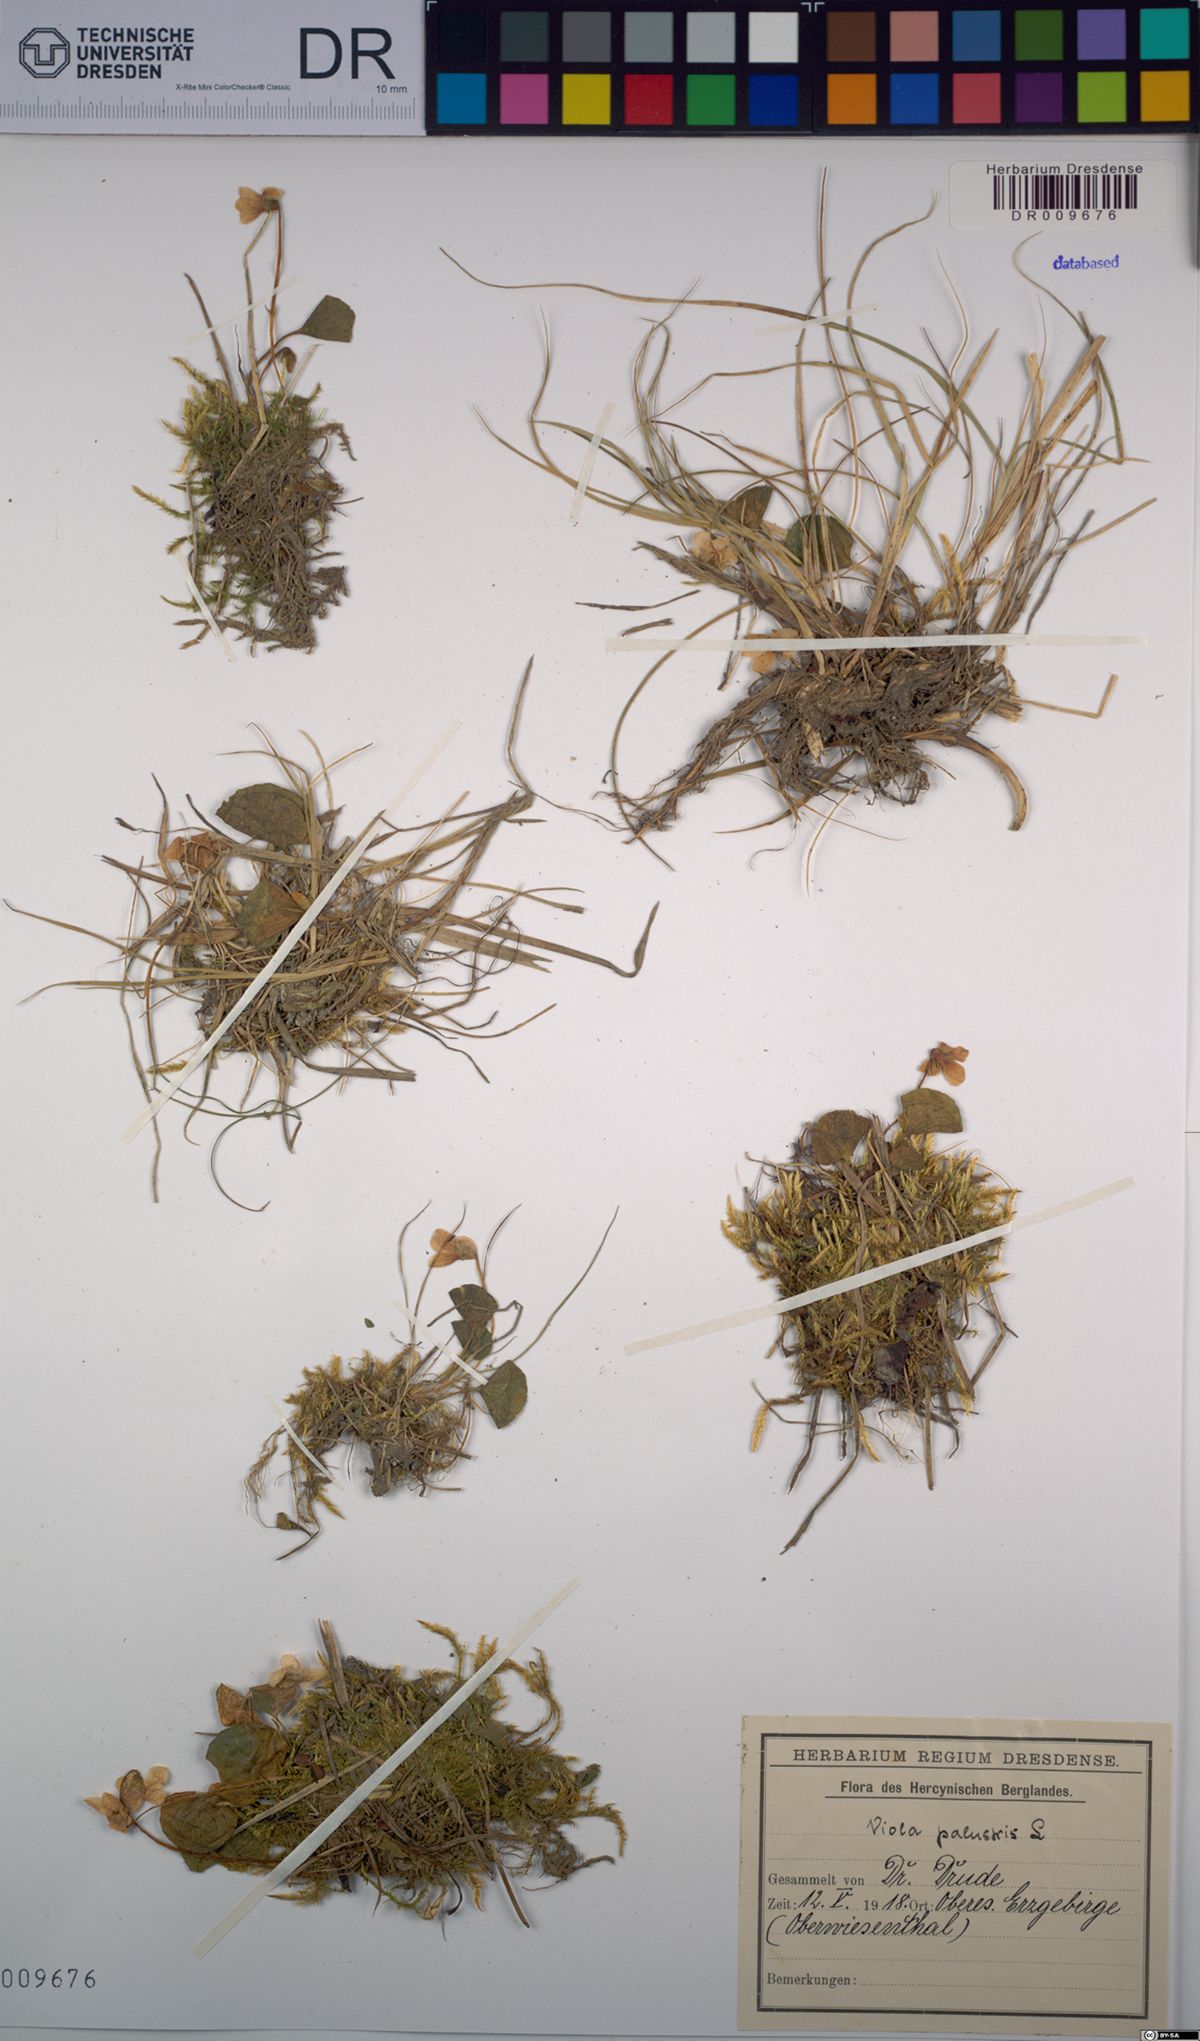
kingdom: Plantae
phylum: Tracheophyta
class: Magnoliopsida
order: Malpighiales
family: Violaceae
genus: Viola
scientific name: Viola palustris
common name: Marsh violet
